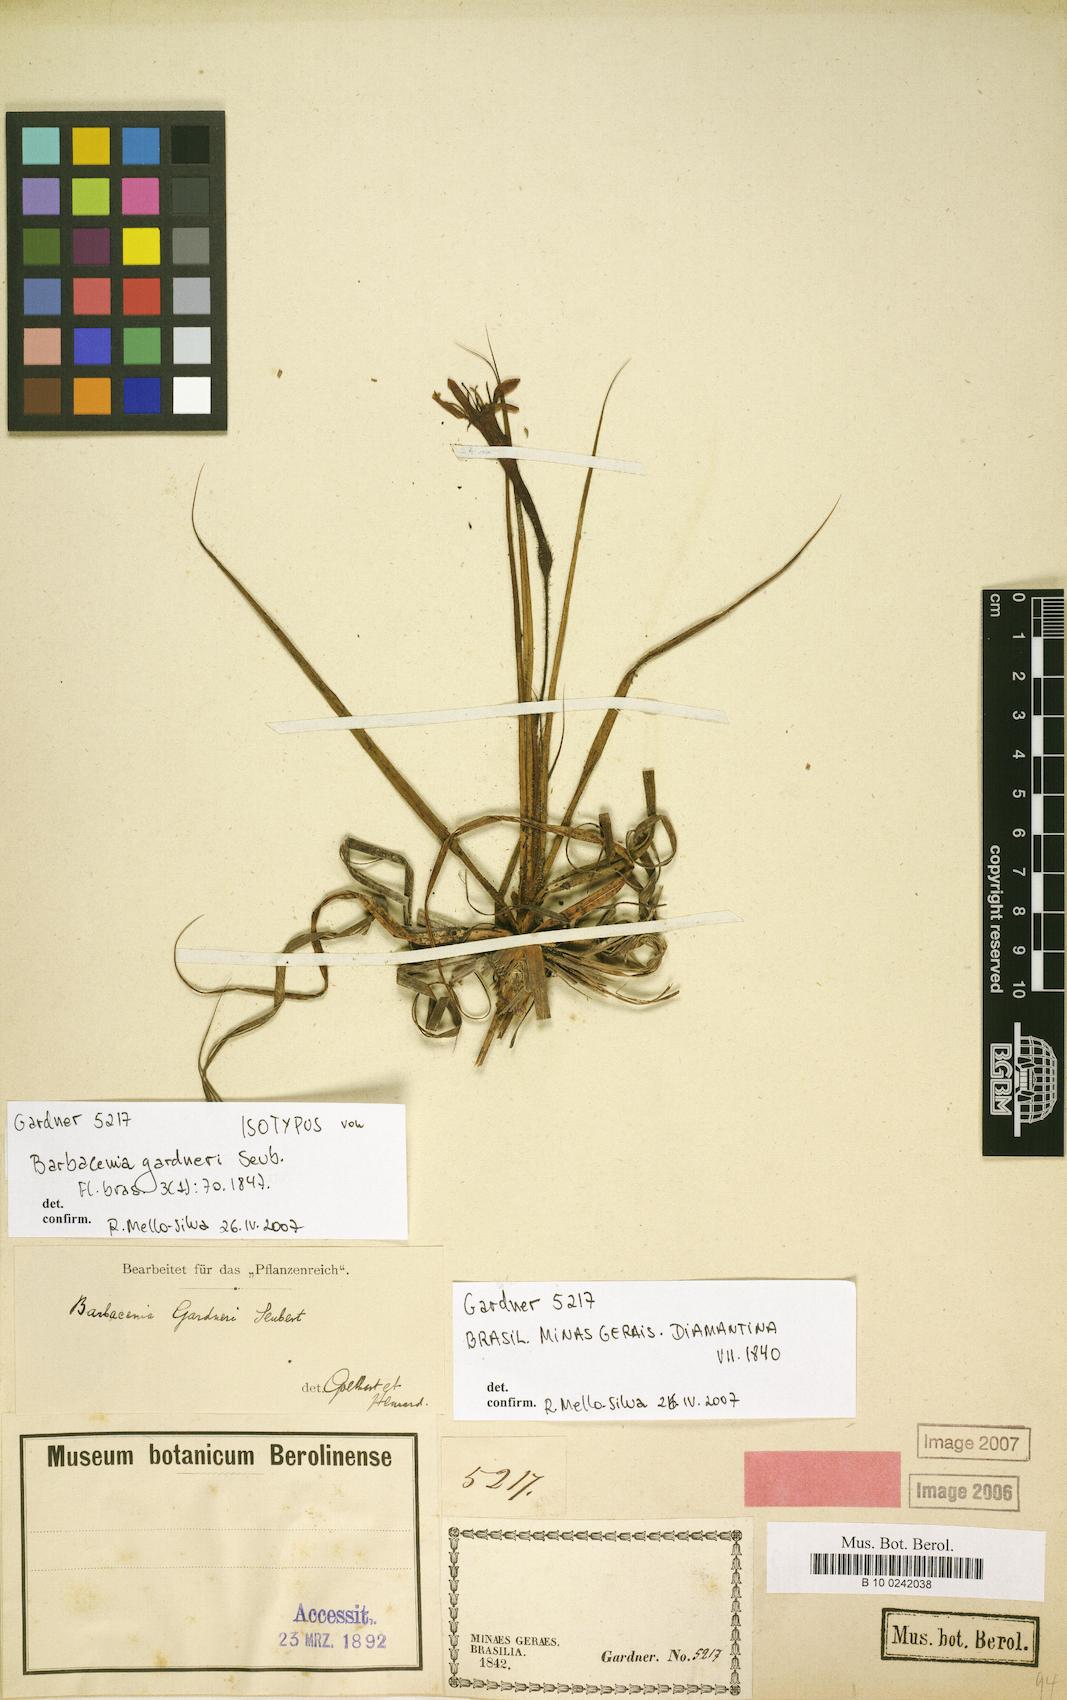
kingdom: Plantae
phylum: Tracheophyta
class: Liliopsida
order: Pandanales
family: Velloziaceae
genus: Barbacenia
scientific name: Barbacenia gardneri
